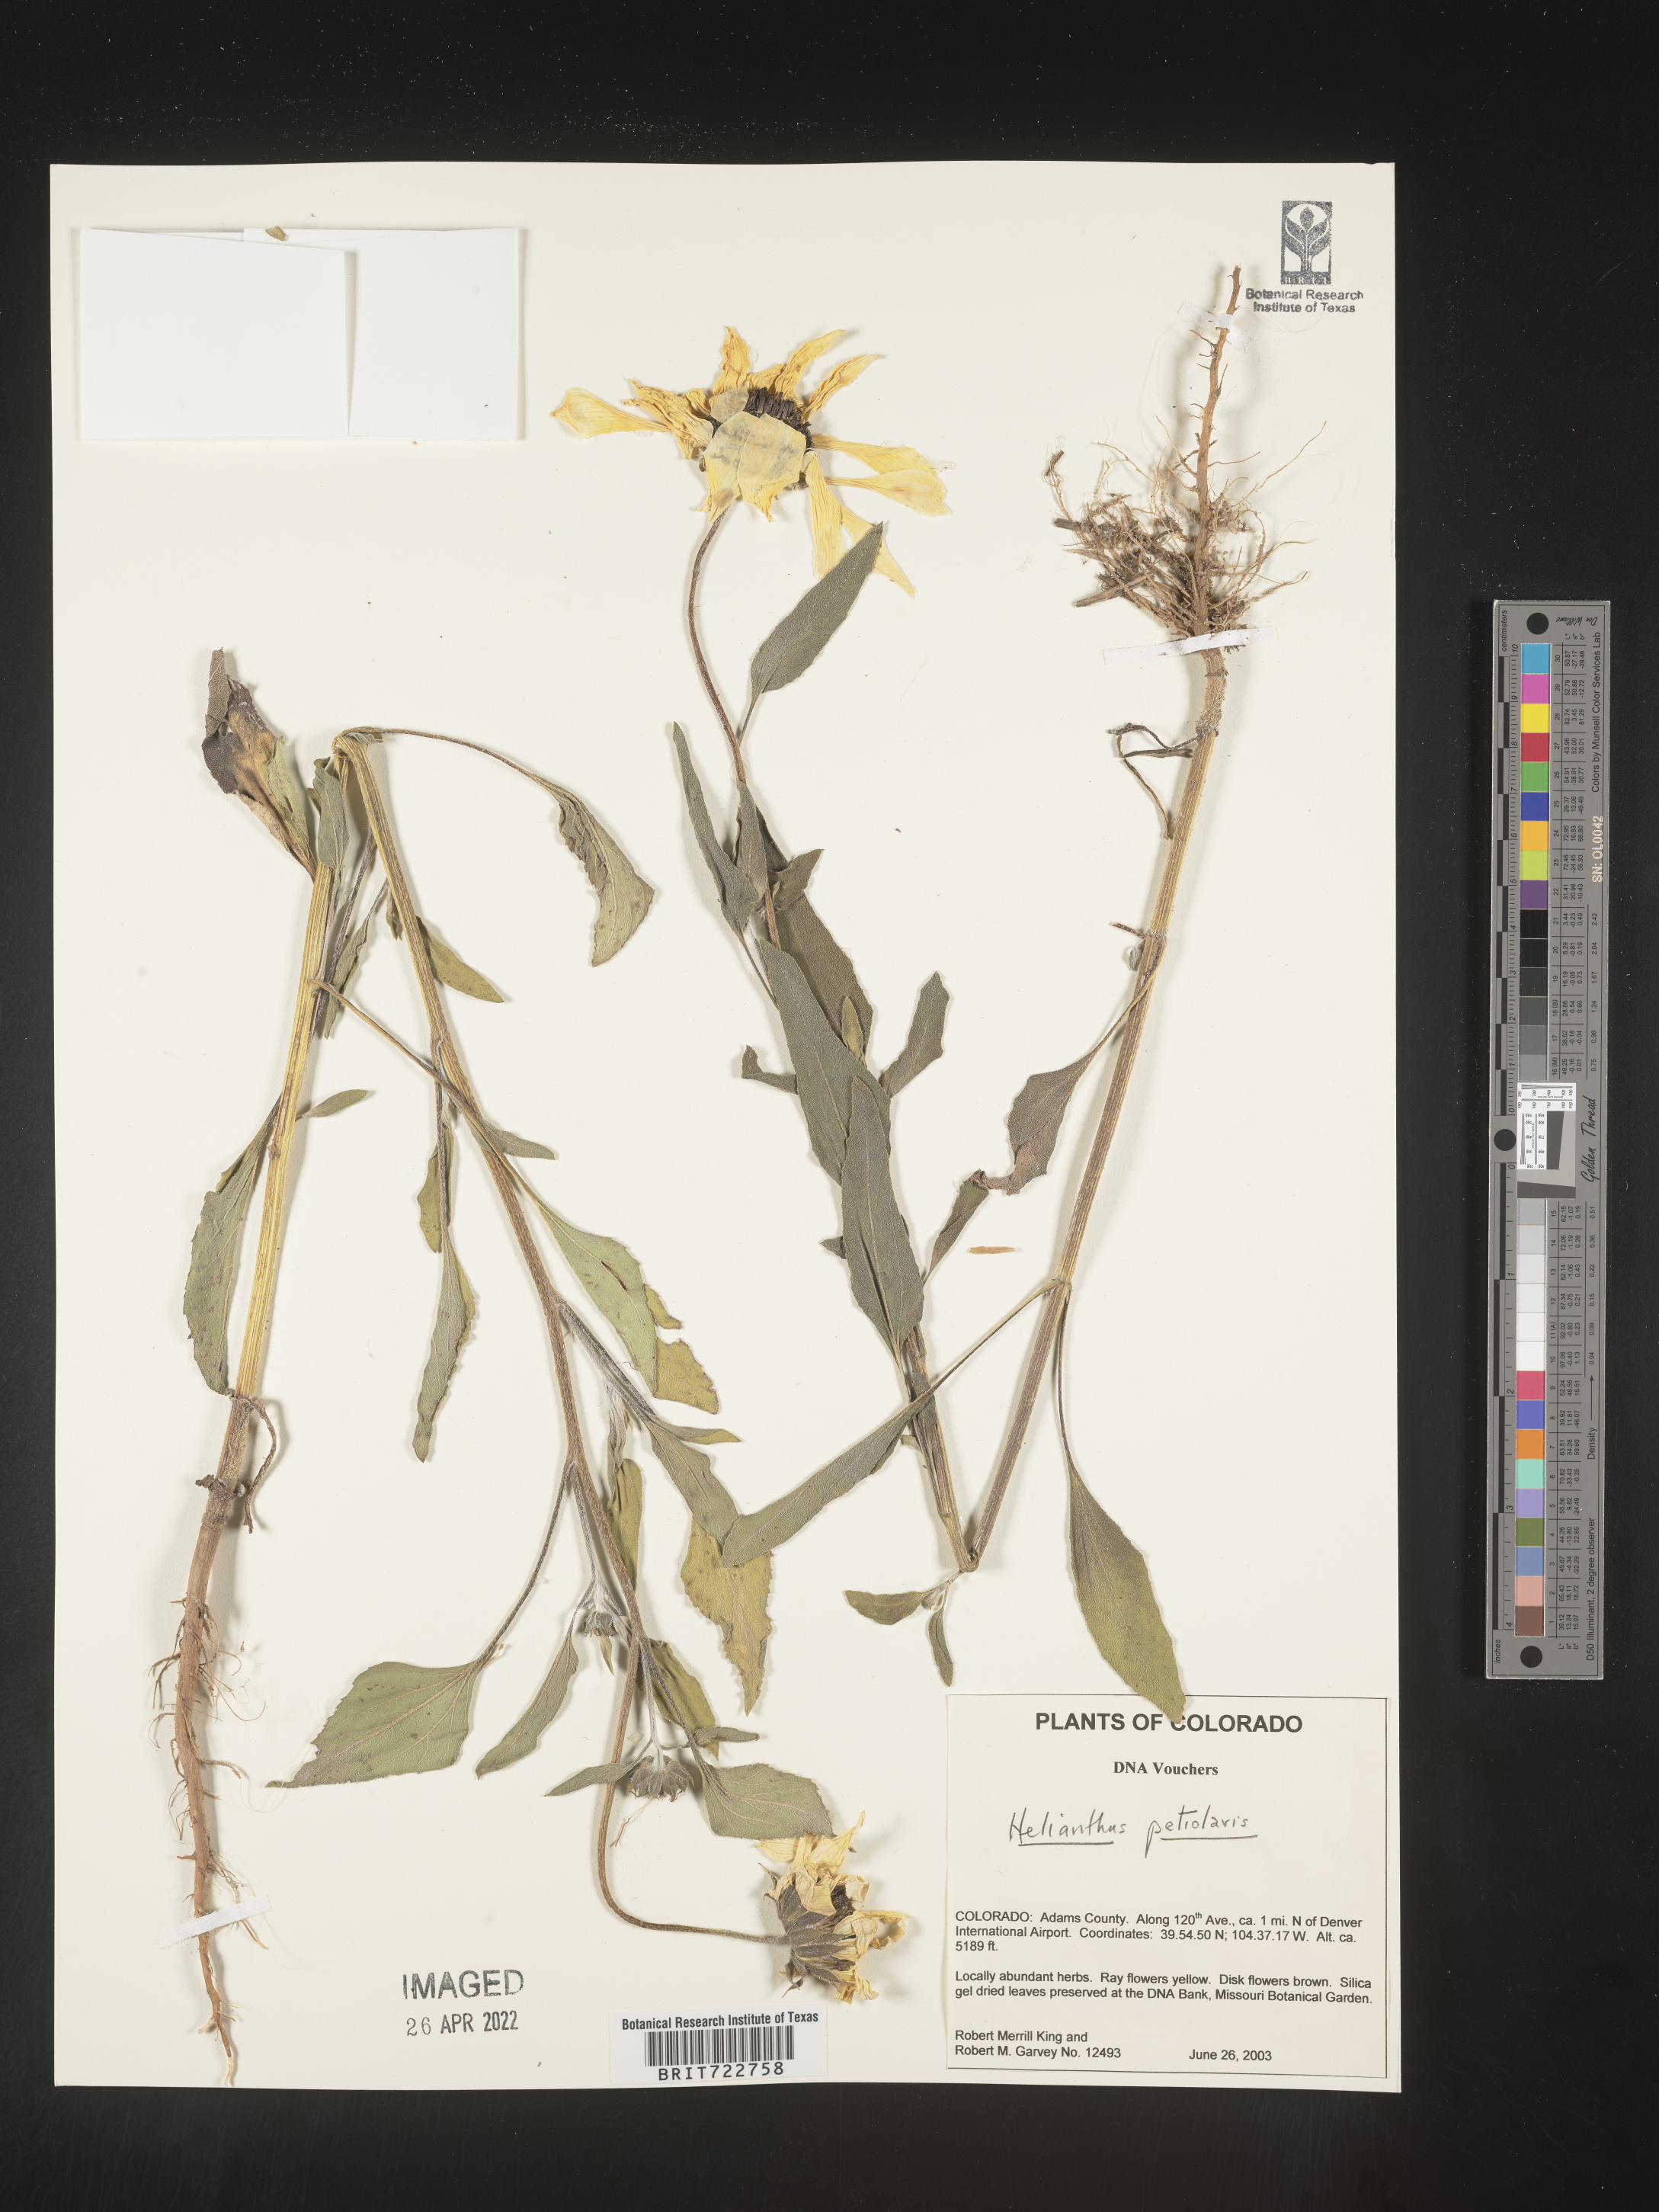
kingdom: Plantae
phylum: Tracheophyta
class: Magnoliopsida
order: Asterales
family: Asteraceae
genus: Helianthus
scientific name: Helianthus petiolaris
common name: Lesser sunflower
